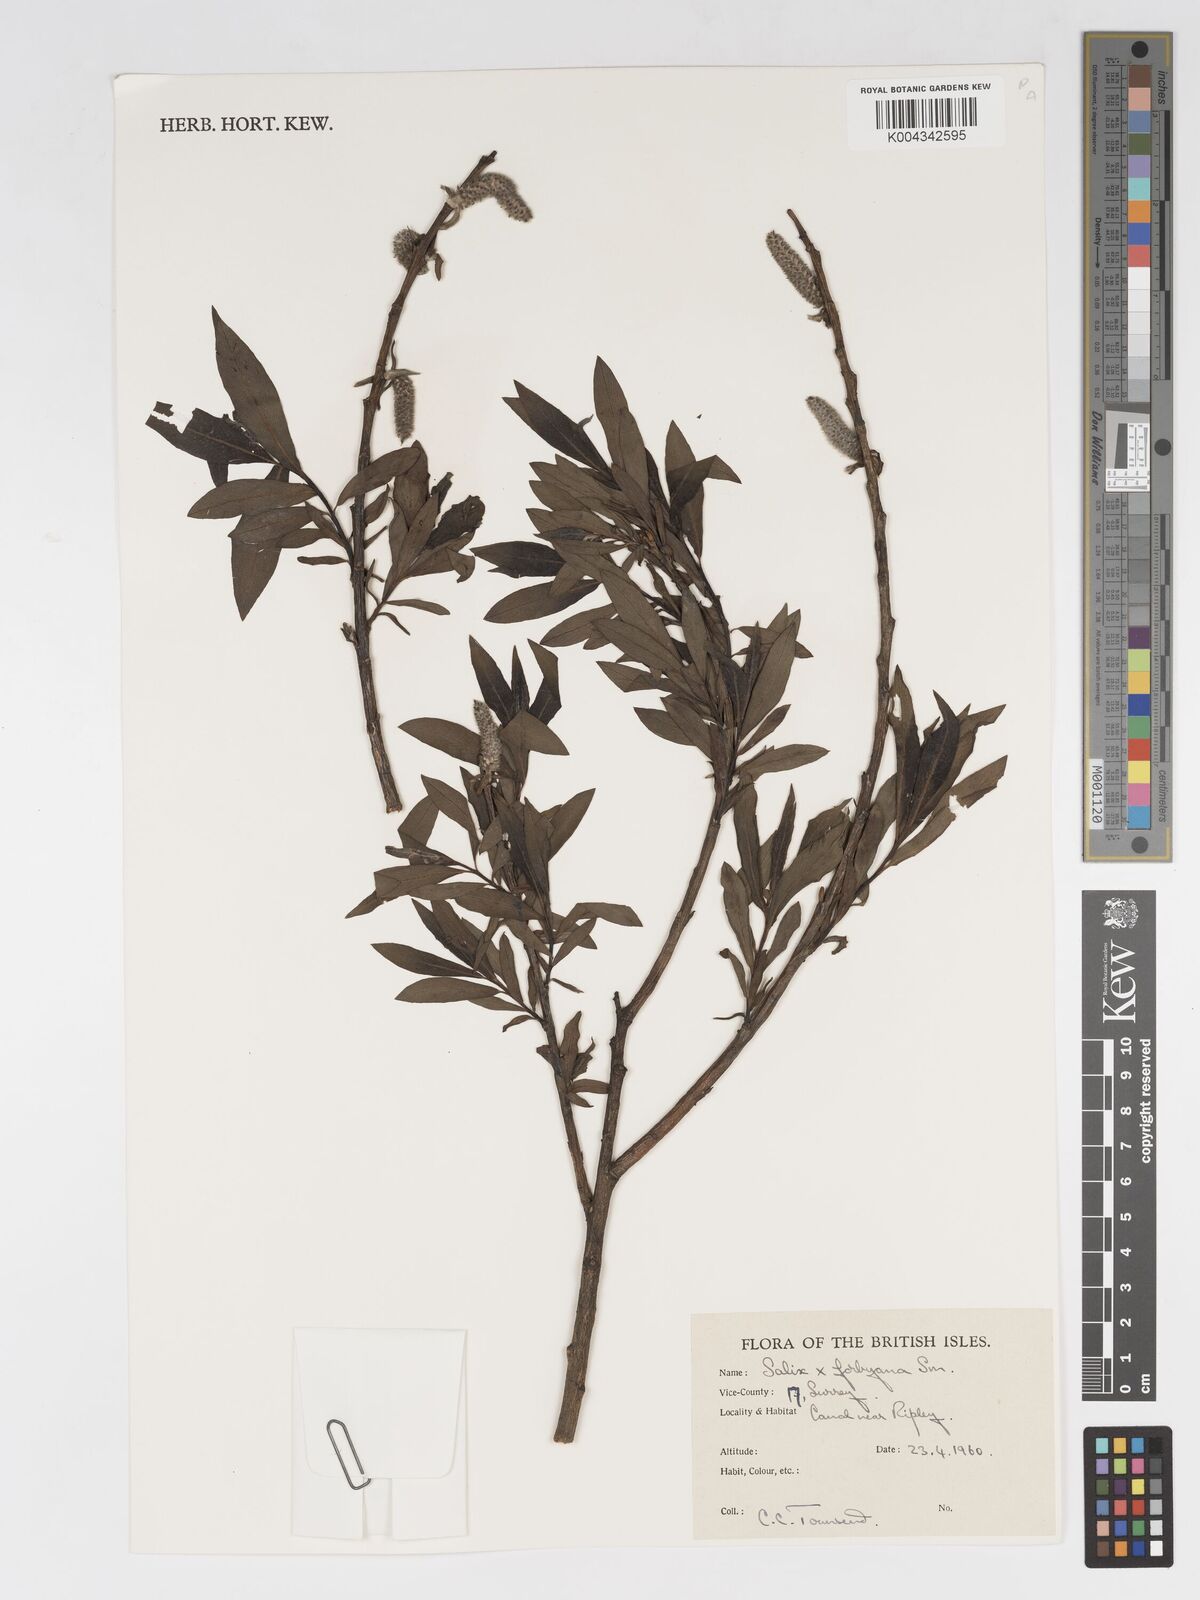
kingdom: Plantae
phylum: Tracheophyta
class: Magnoliopsida
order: Malpighiales
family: Salicaceae
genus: Salix
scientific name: Salix cinerea
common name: Common sallow
